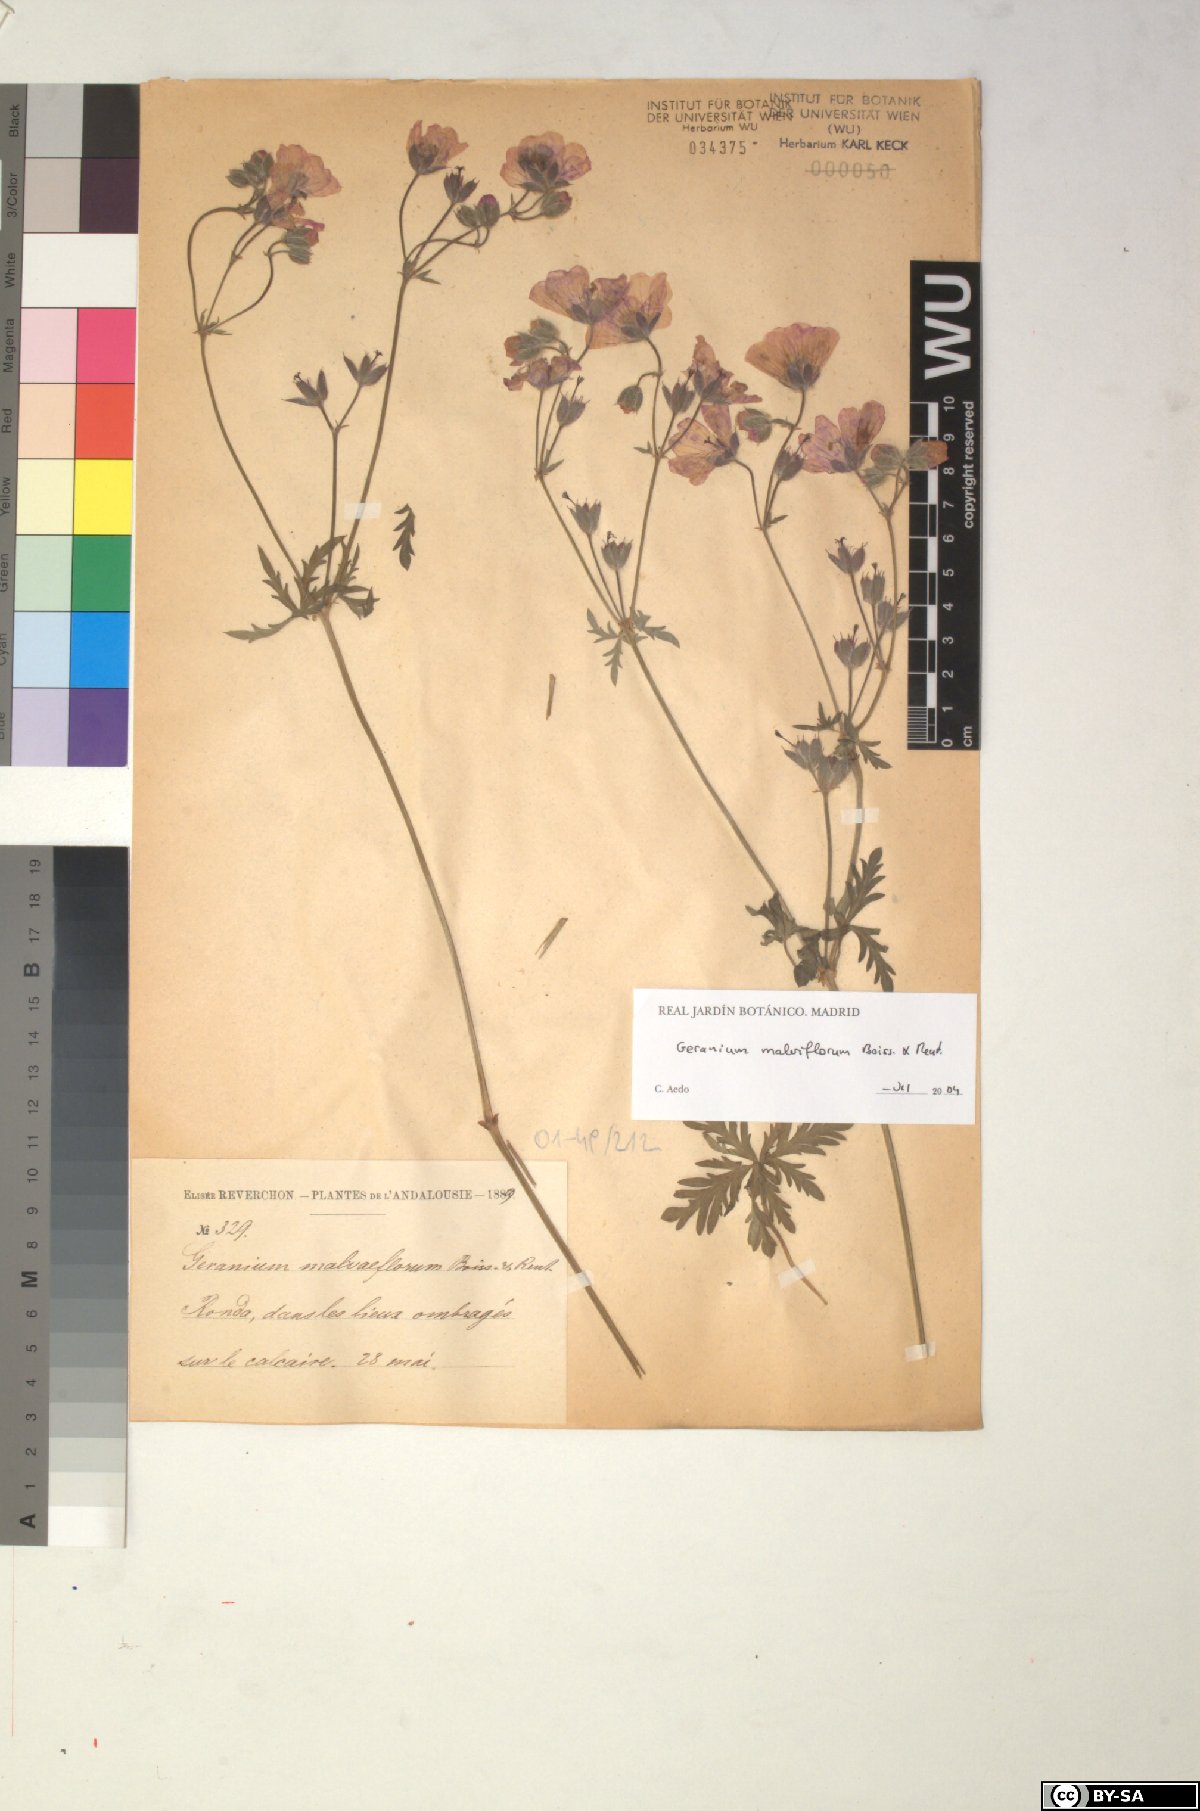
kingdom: Plantae
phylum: Tracheophyta
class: Magnoliopsida
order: Geraniales
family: Geraniaceae
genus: Geranium
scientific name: Geranium malviflorum
